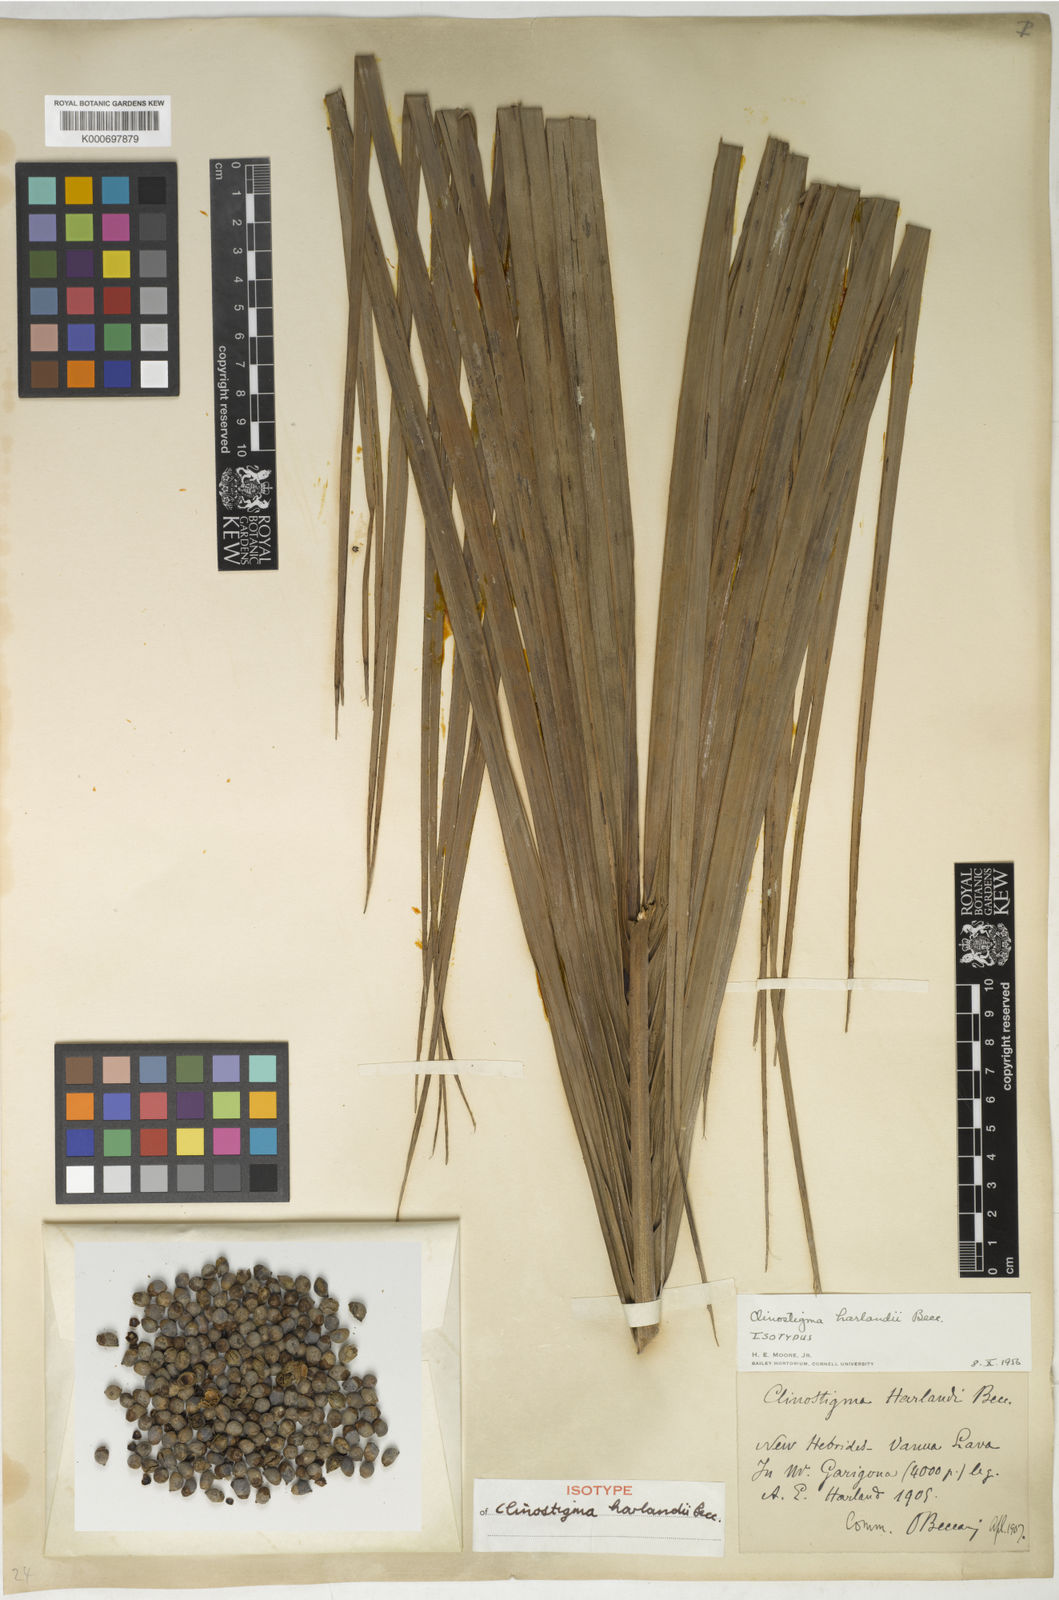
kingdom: Plantae
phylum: Tracheophyta
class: Liliopsida
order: Arecales
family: Arecaceae
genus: Clinostigma
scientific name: Clinostigma harlandii
